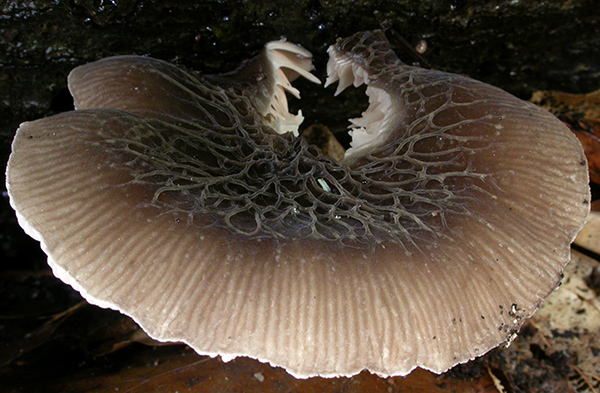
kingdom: Fungi
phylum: Basidiomycota
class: Agaricomycetes
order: Agaricales
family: Pluteaceae
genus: Pluteus
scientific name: Pluteus
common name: gråstokket skærmhat
